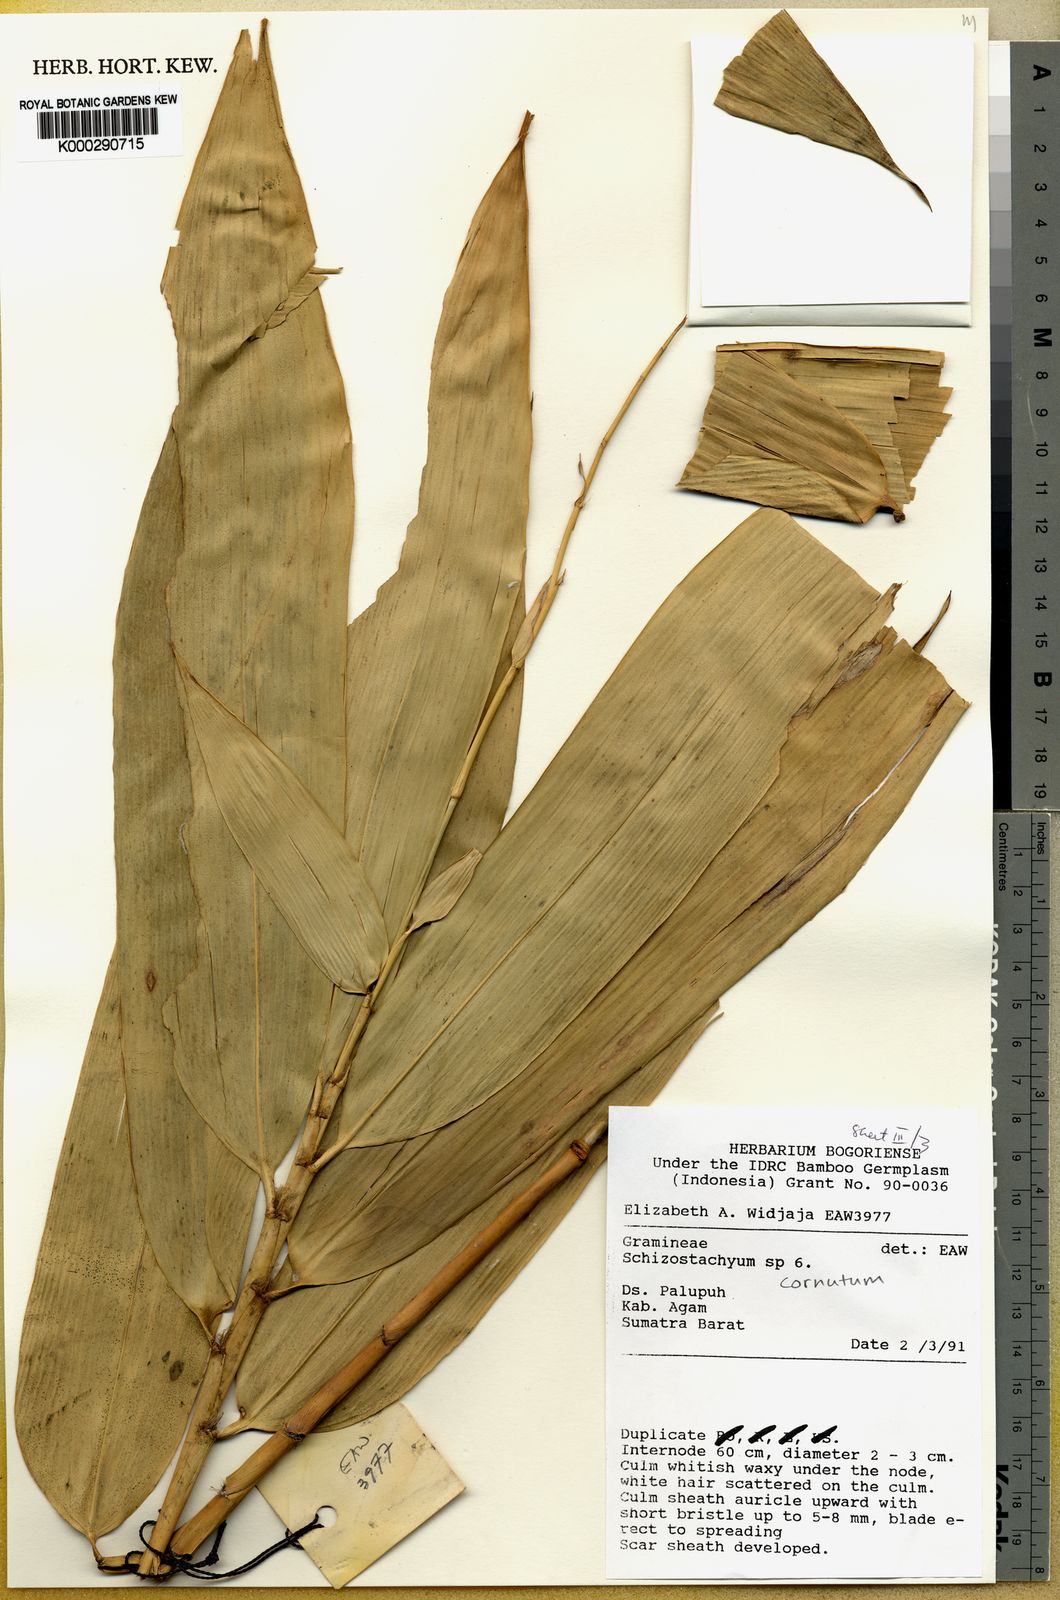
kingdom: Plantae
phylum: Tracheophyta
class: Liliopsida
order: Poales
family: Poaceae
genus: Schizostachyum
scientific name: Schizostachyum cornutum
